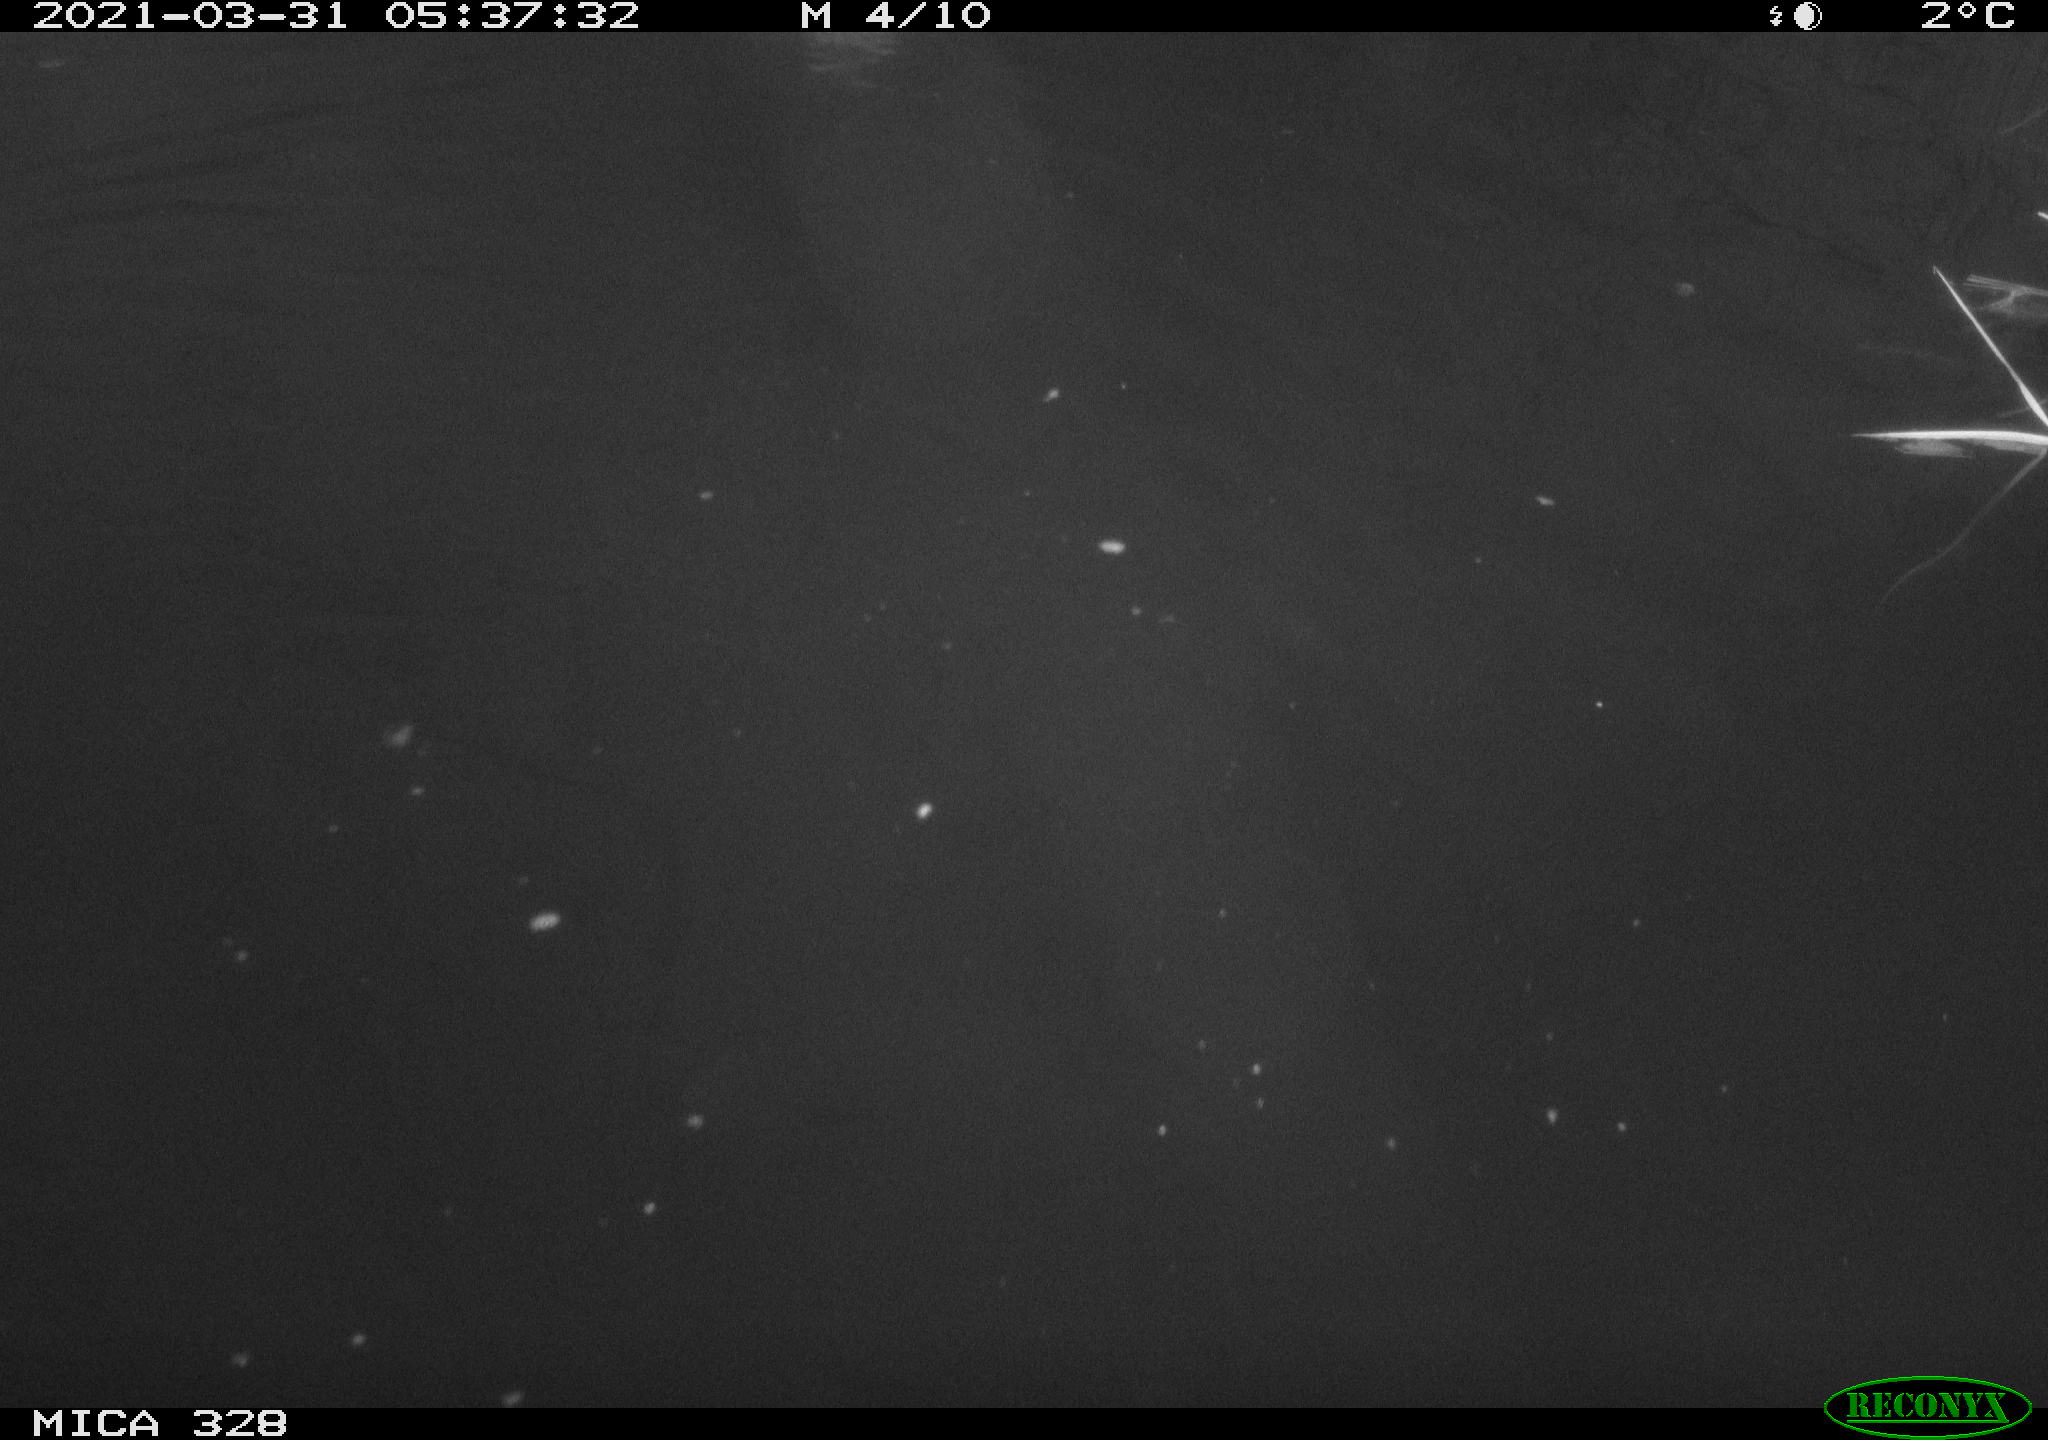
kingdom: Animalia
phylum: Chordata
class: Aves
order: Anseriformes
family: Anatidae
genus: Anas
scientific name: Anas platyrhynchos
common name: Mallard
